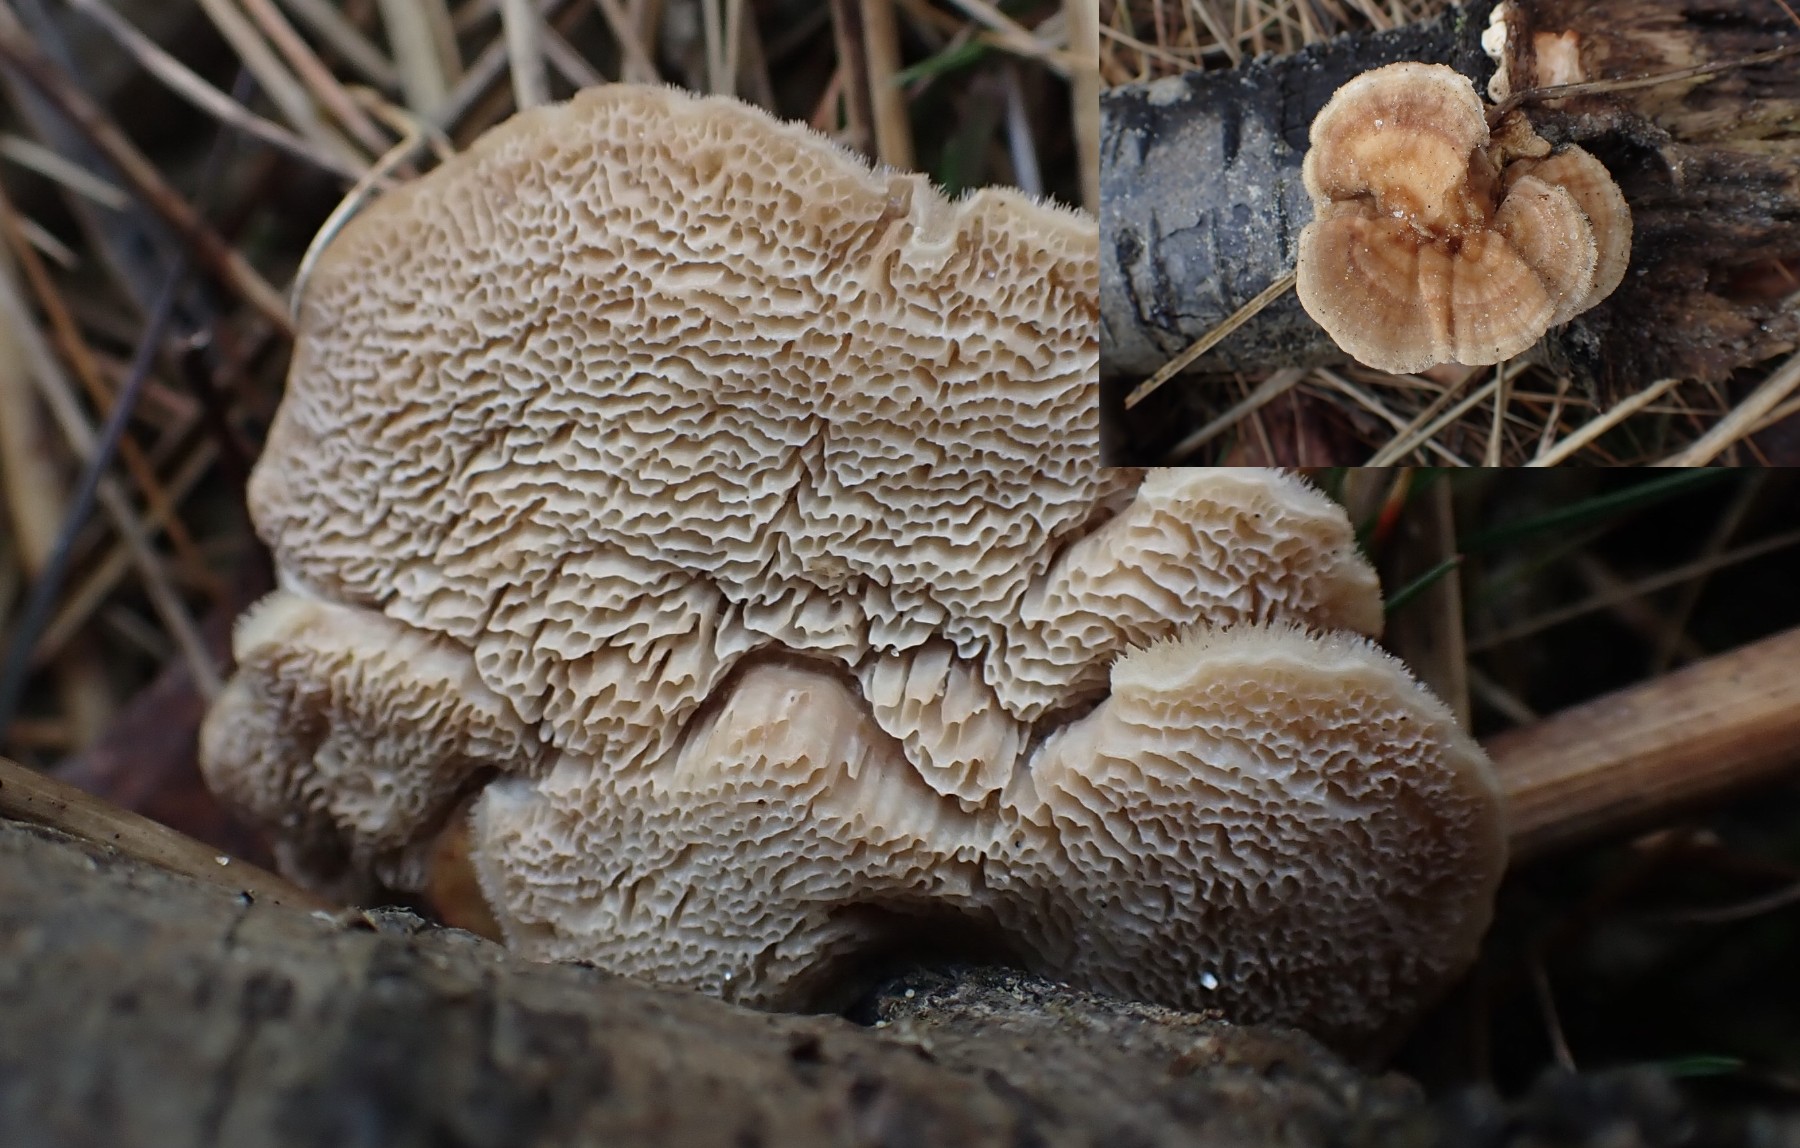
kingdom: Fungi
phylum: Basidiomycota
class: Agaricomycetes
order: Polyporales
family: Polyporaceae
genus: Trametes
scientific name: Trametes
